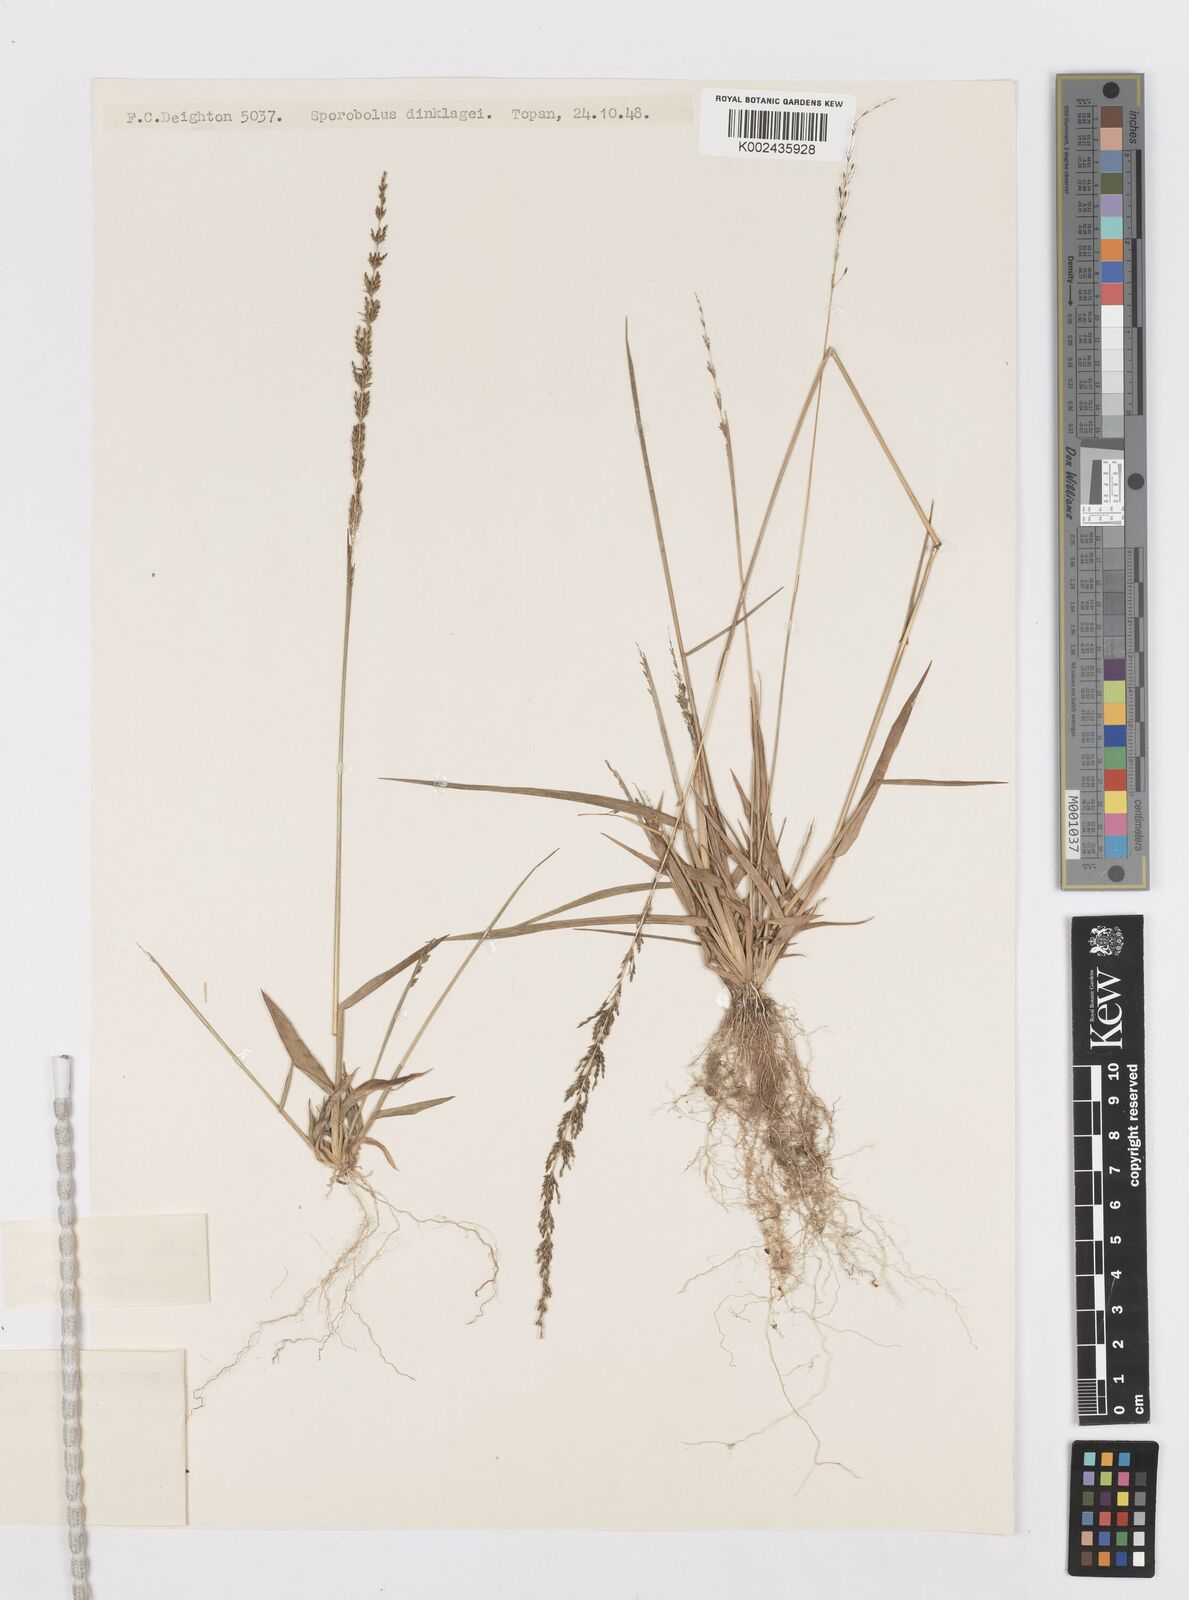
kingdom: Plantae
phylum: Tracheophyta
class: Liliopsida
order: Poales
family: Poaceae
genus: Sporobolus
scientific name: Sporobolus dinklagei
